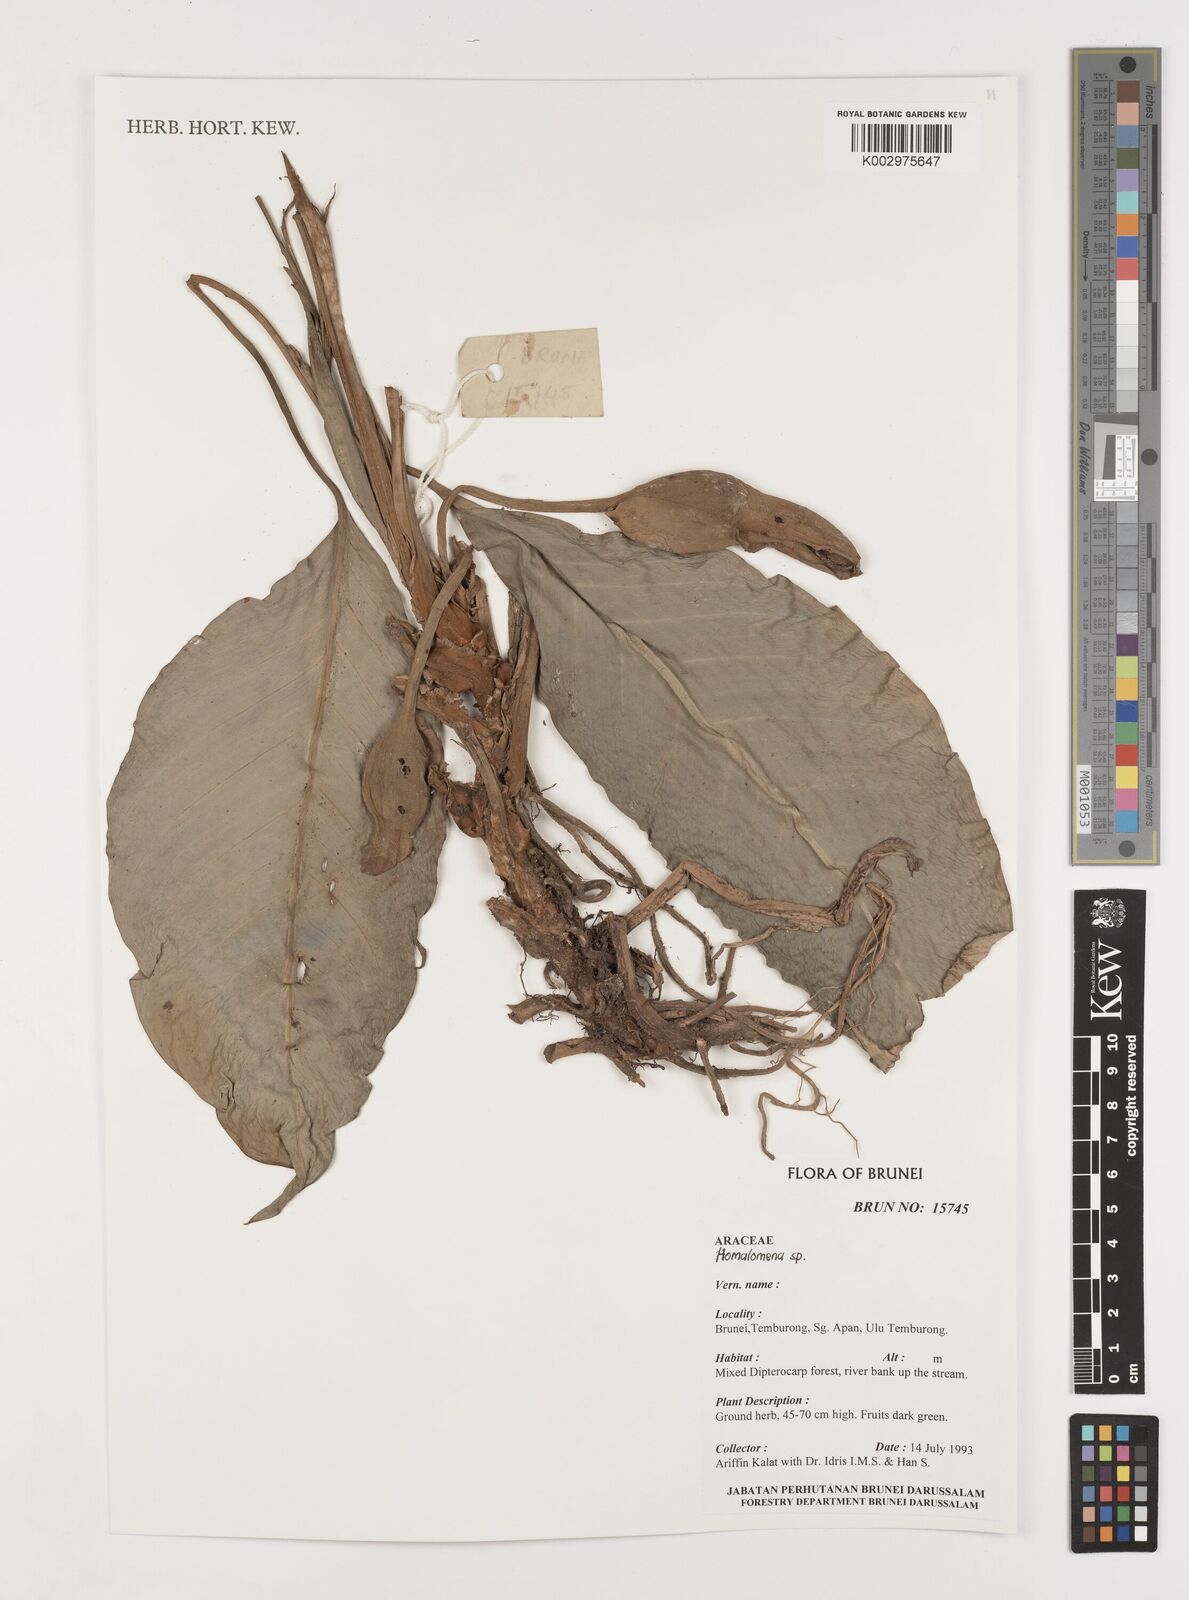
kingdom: Plantae
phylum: Tracheophyta
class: Liliopsida
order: Alismatales
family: Araceae
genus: Homalomena
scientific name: Homalomena
